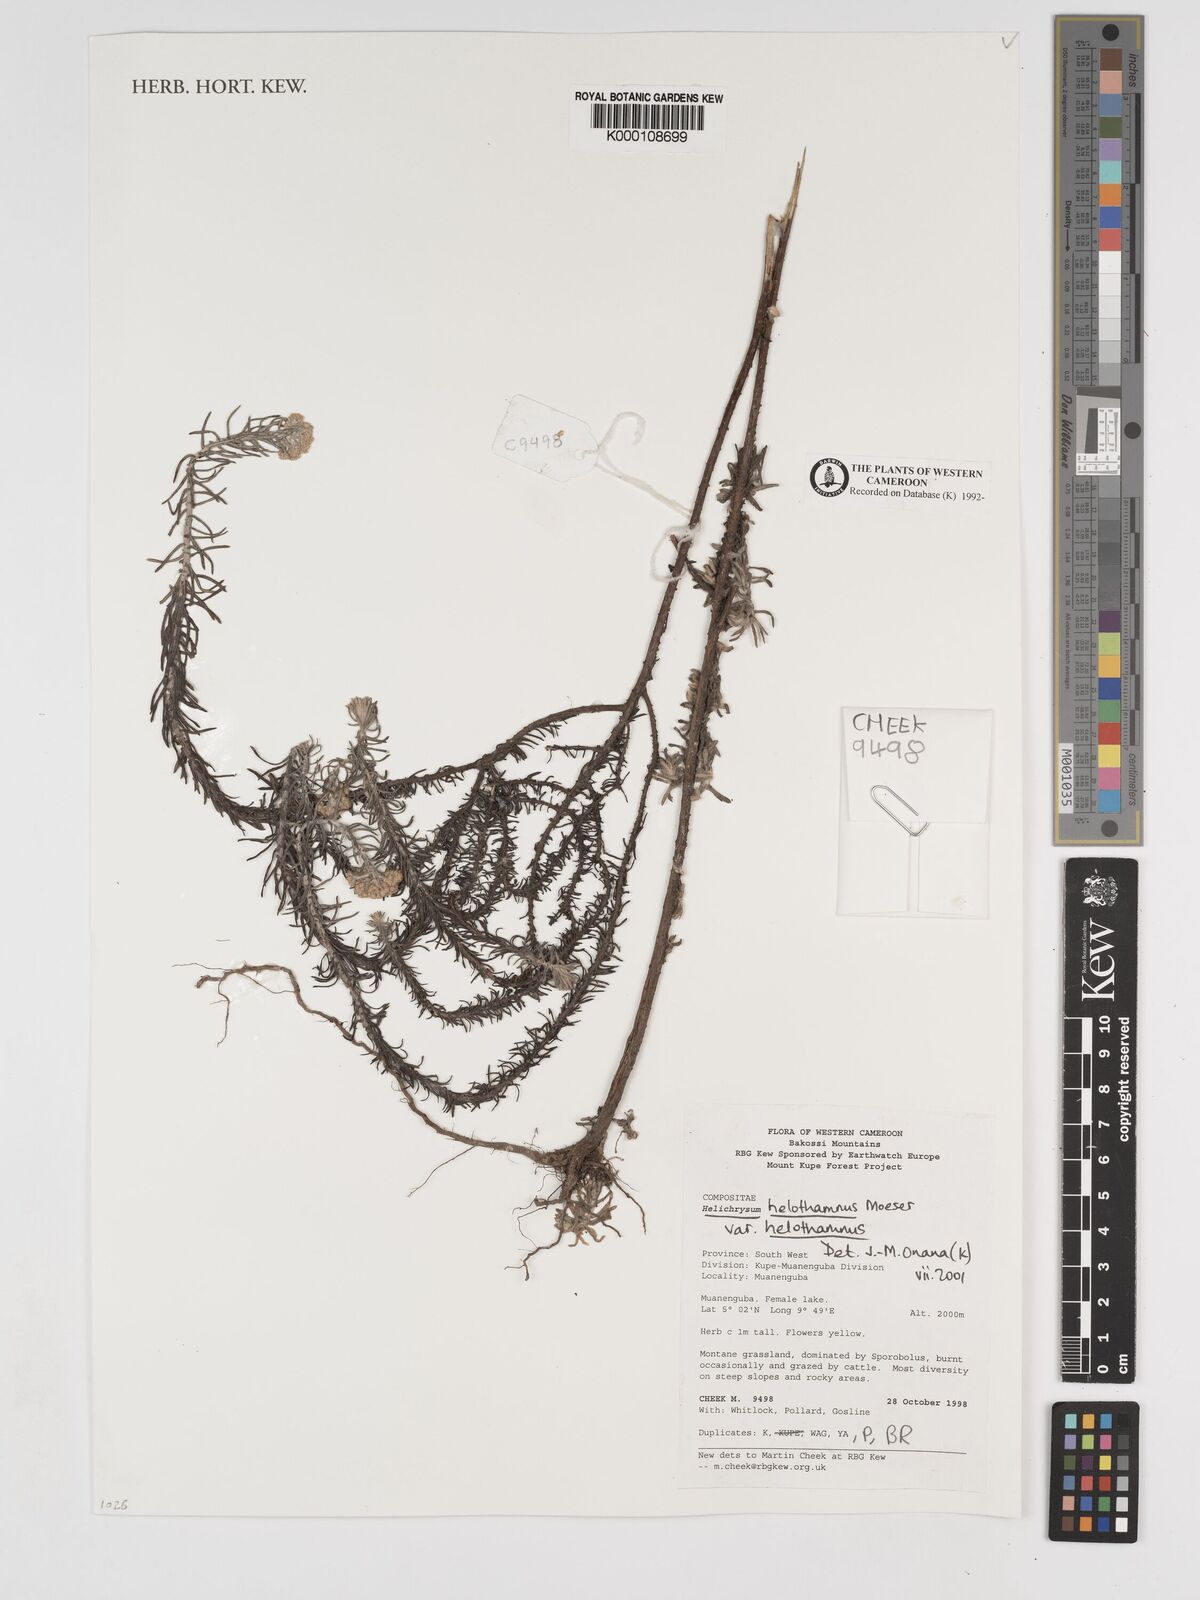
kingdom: Plantae
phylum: Tracheophyta
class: Magnoliopsida
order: Asterales
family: Asteraceae
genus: Helichrysum
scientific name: Helichrysum forskahlii
